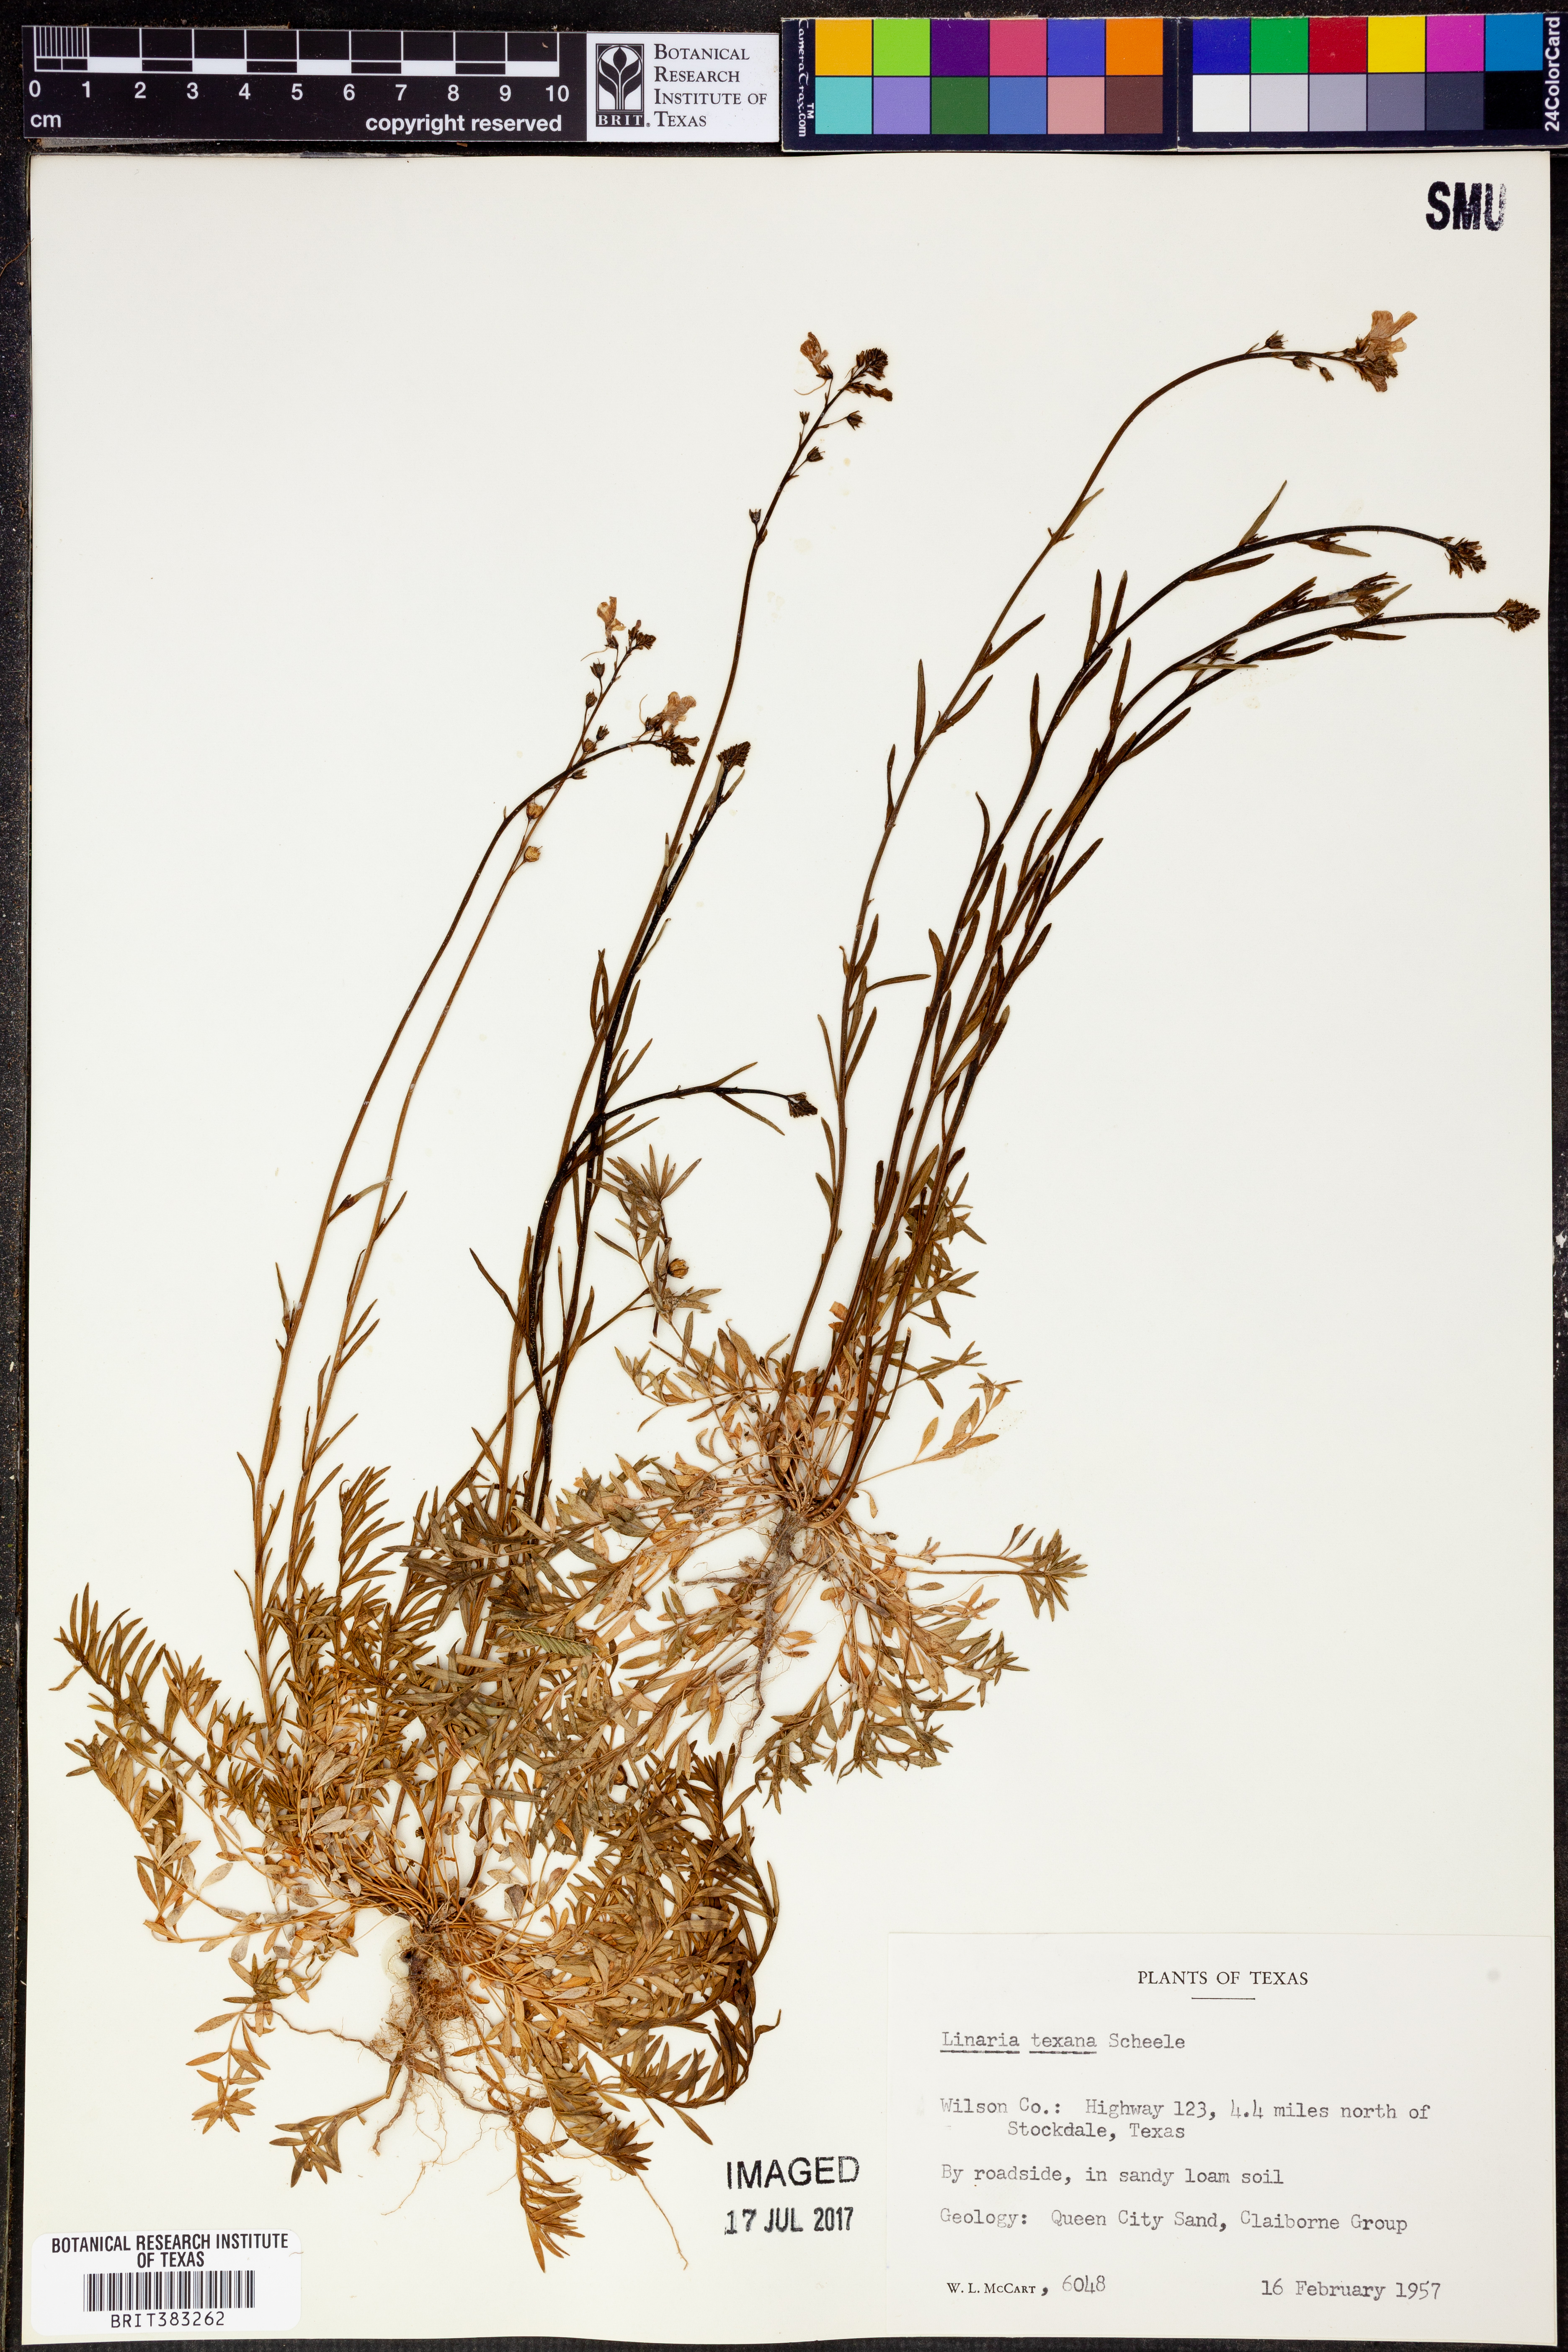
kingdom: Plantae
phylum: Tracheophyta
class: Magnoliopsida
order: Lamiales
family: Plantaginaceae
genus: Nuttallanthus
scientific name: Nuttallanthus texanus
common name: Texas toadflax
